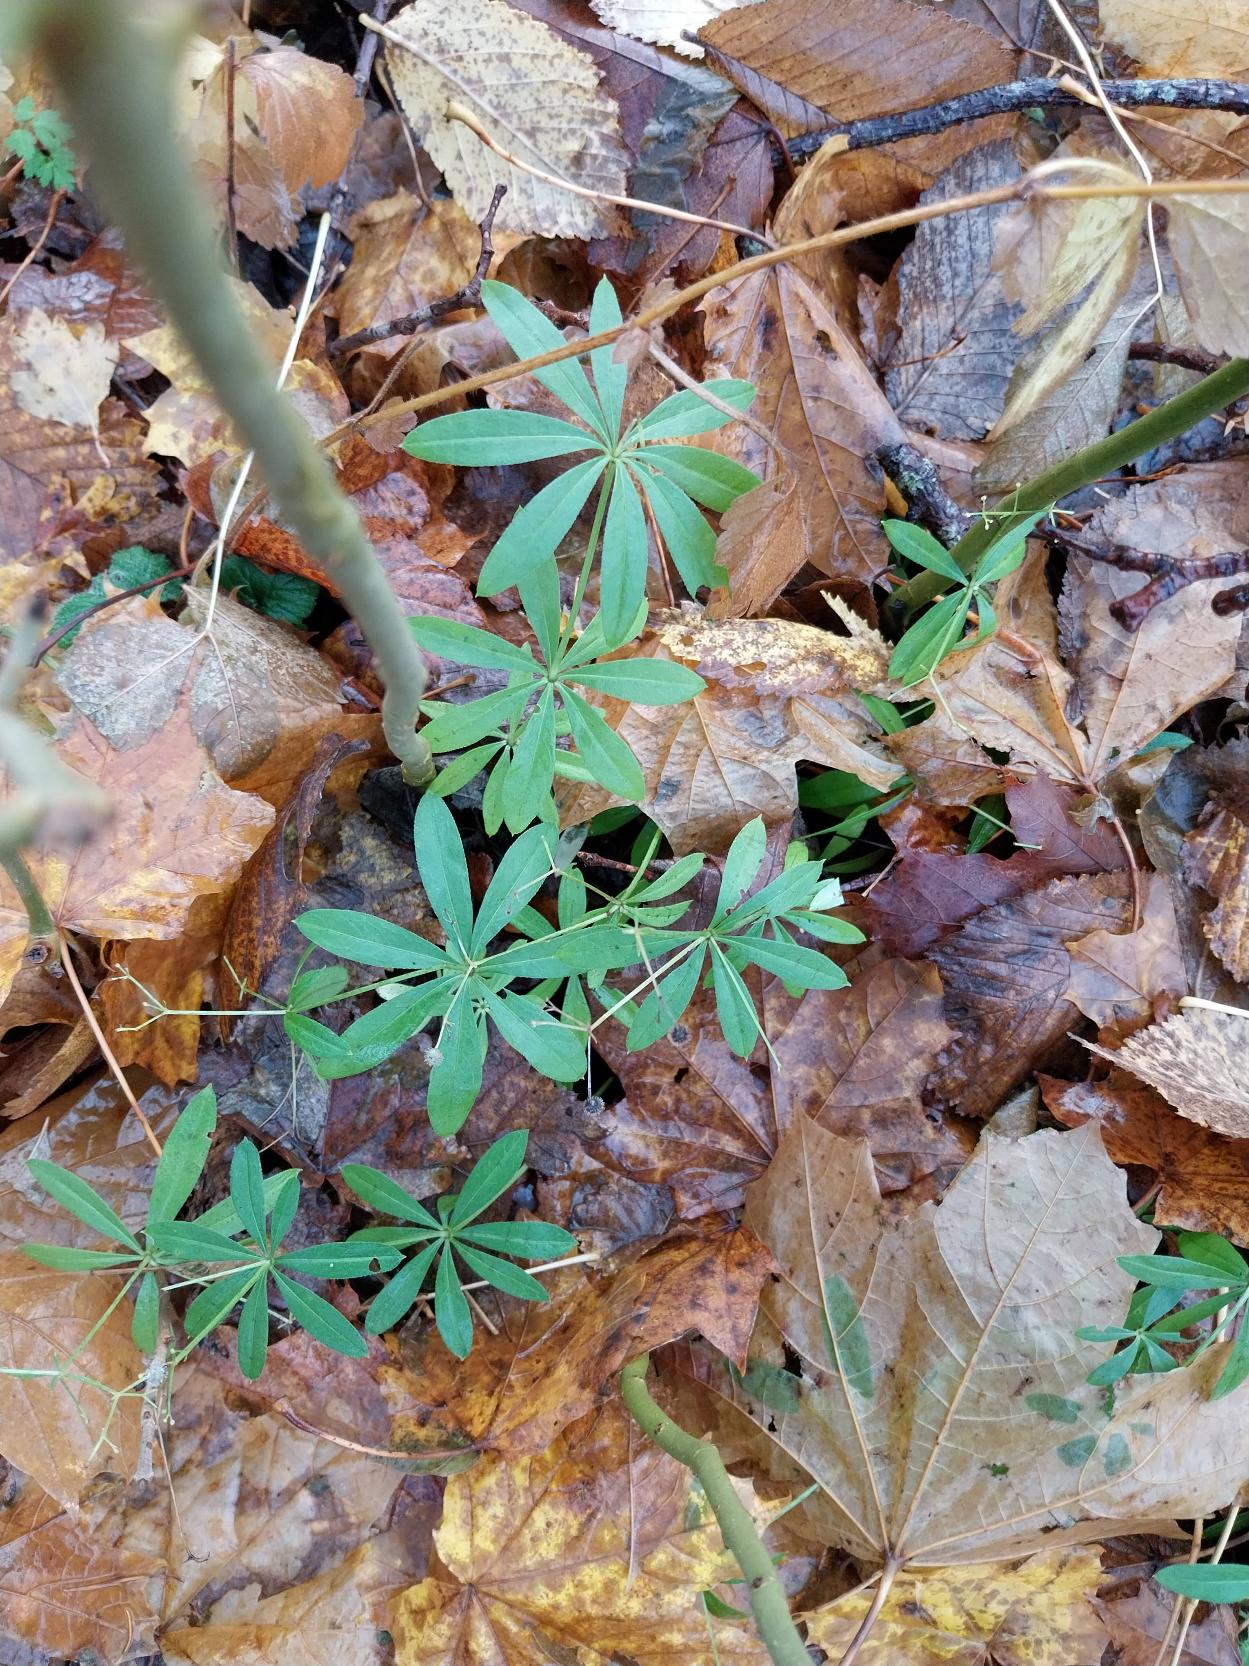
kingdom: Plantae
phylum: Tracheophyta
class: Magnoliopsida
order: Gentianales
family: Rubiaceae
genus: Galium
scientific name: Galium odoratum
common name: Skovmærke
